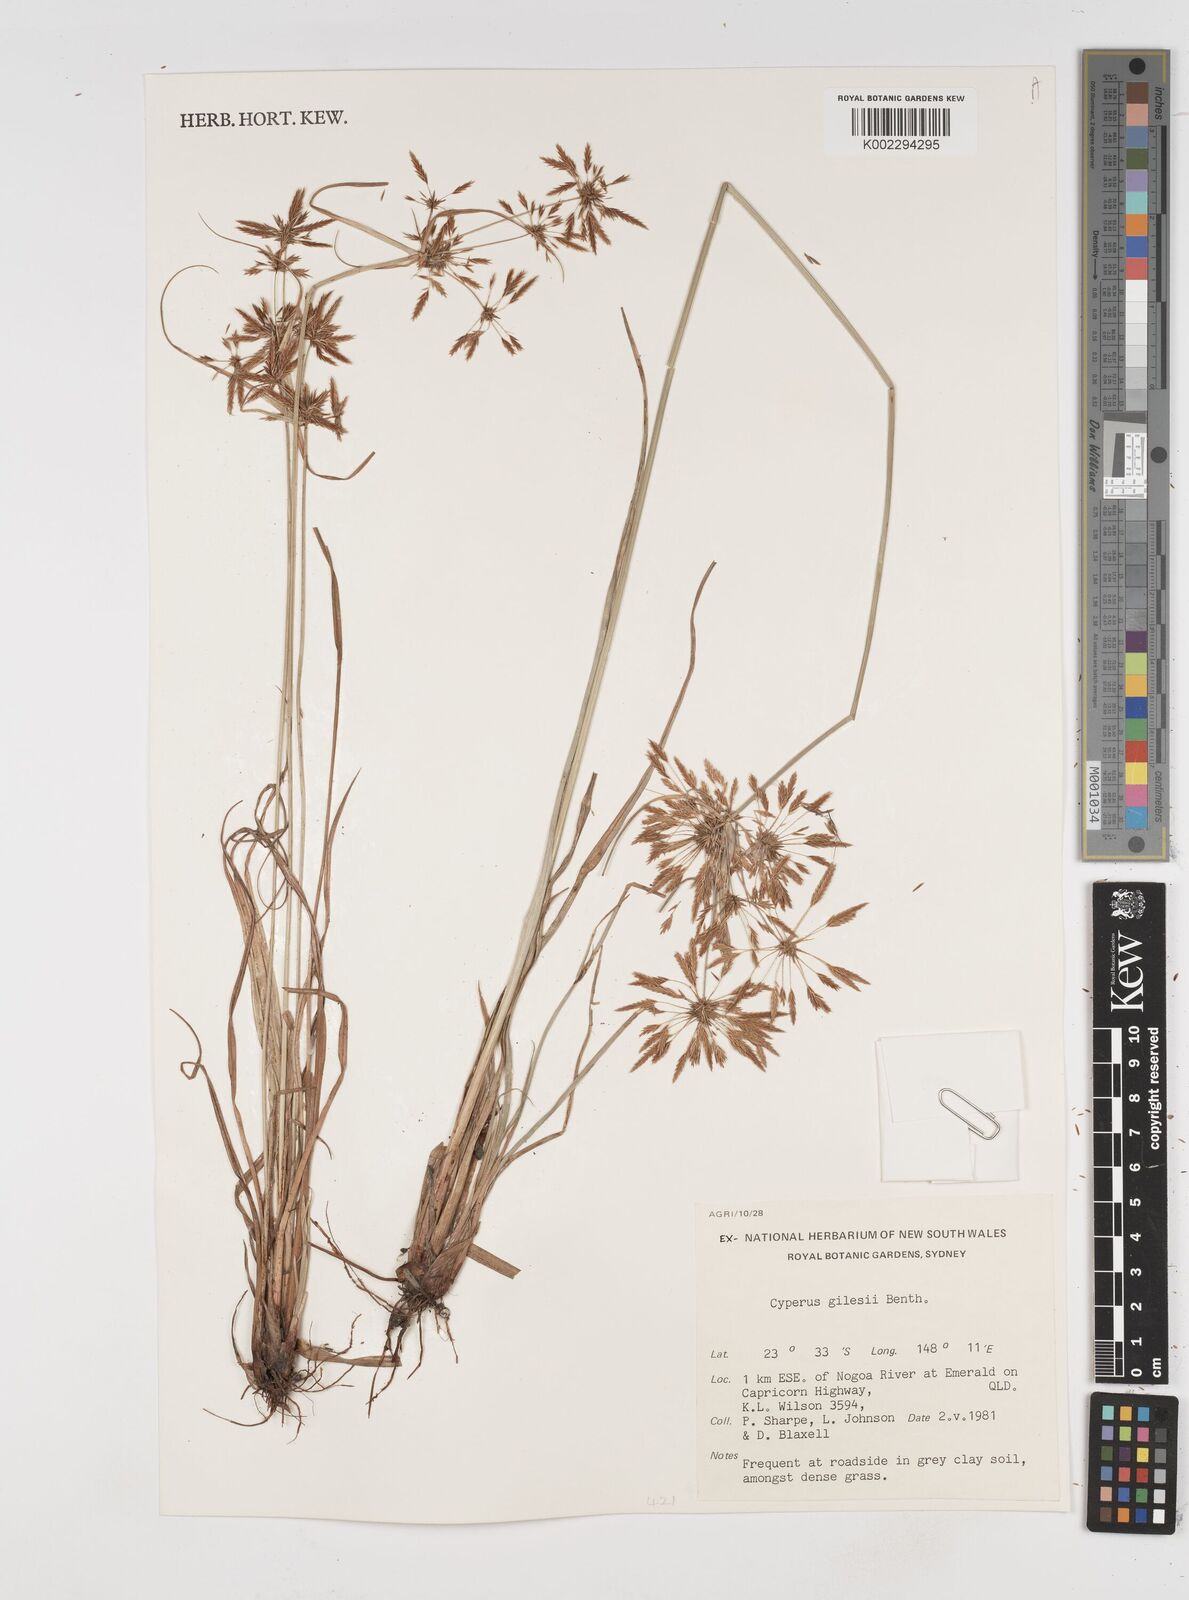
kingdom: Plantae
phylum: Tracheophyta
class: Liliopsida
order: Poales
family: Cyperaceae
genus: Cyperus
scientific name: Cyperus gilesii
